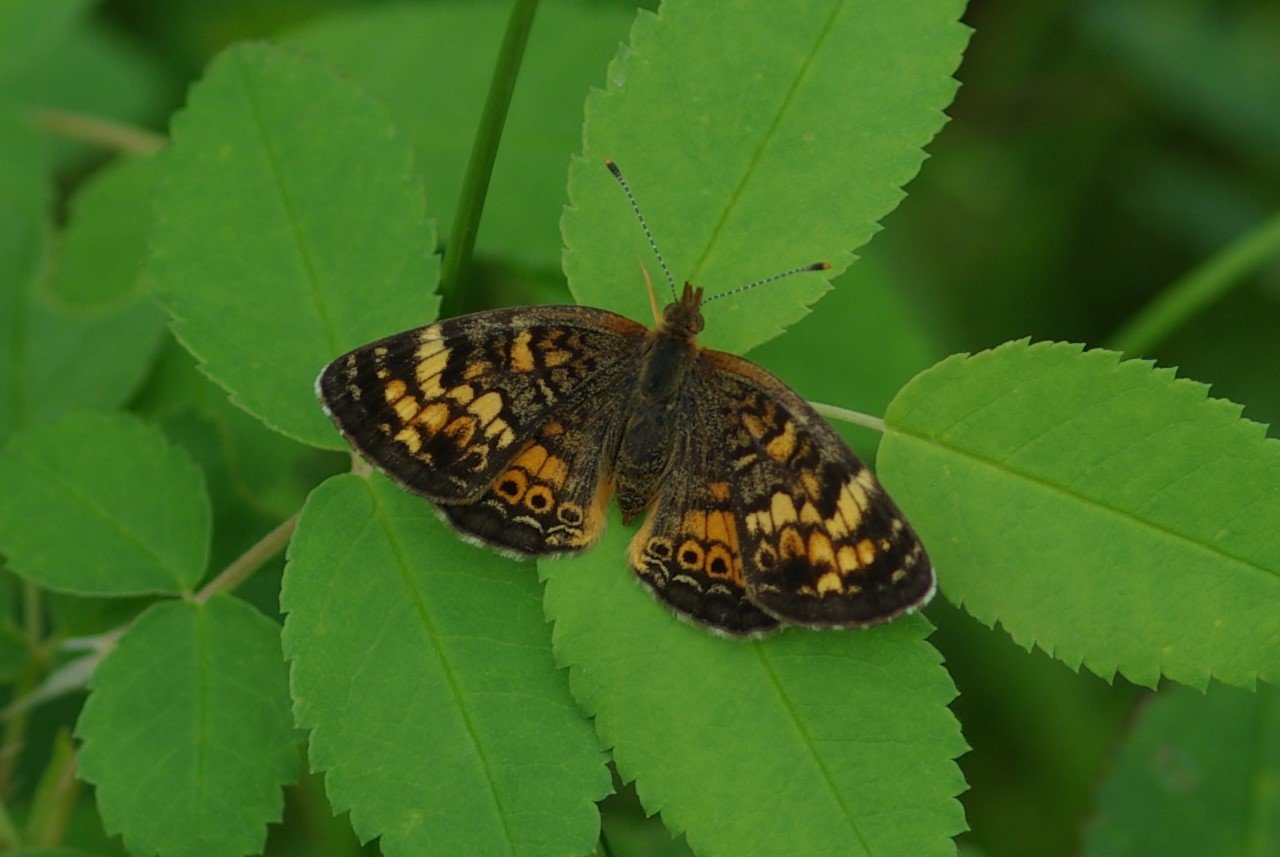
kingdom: Animalia
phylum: Arthropoda
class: Insecta
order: Lepidoptera
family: Nymphalidae
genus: Phyciodes
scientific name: Phyciodes tharos
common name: Northern Crescent
